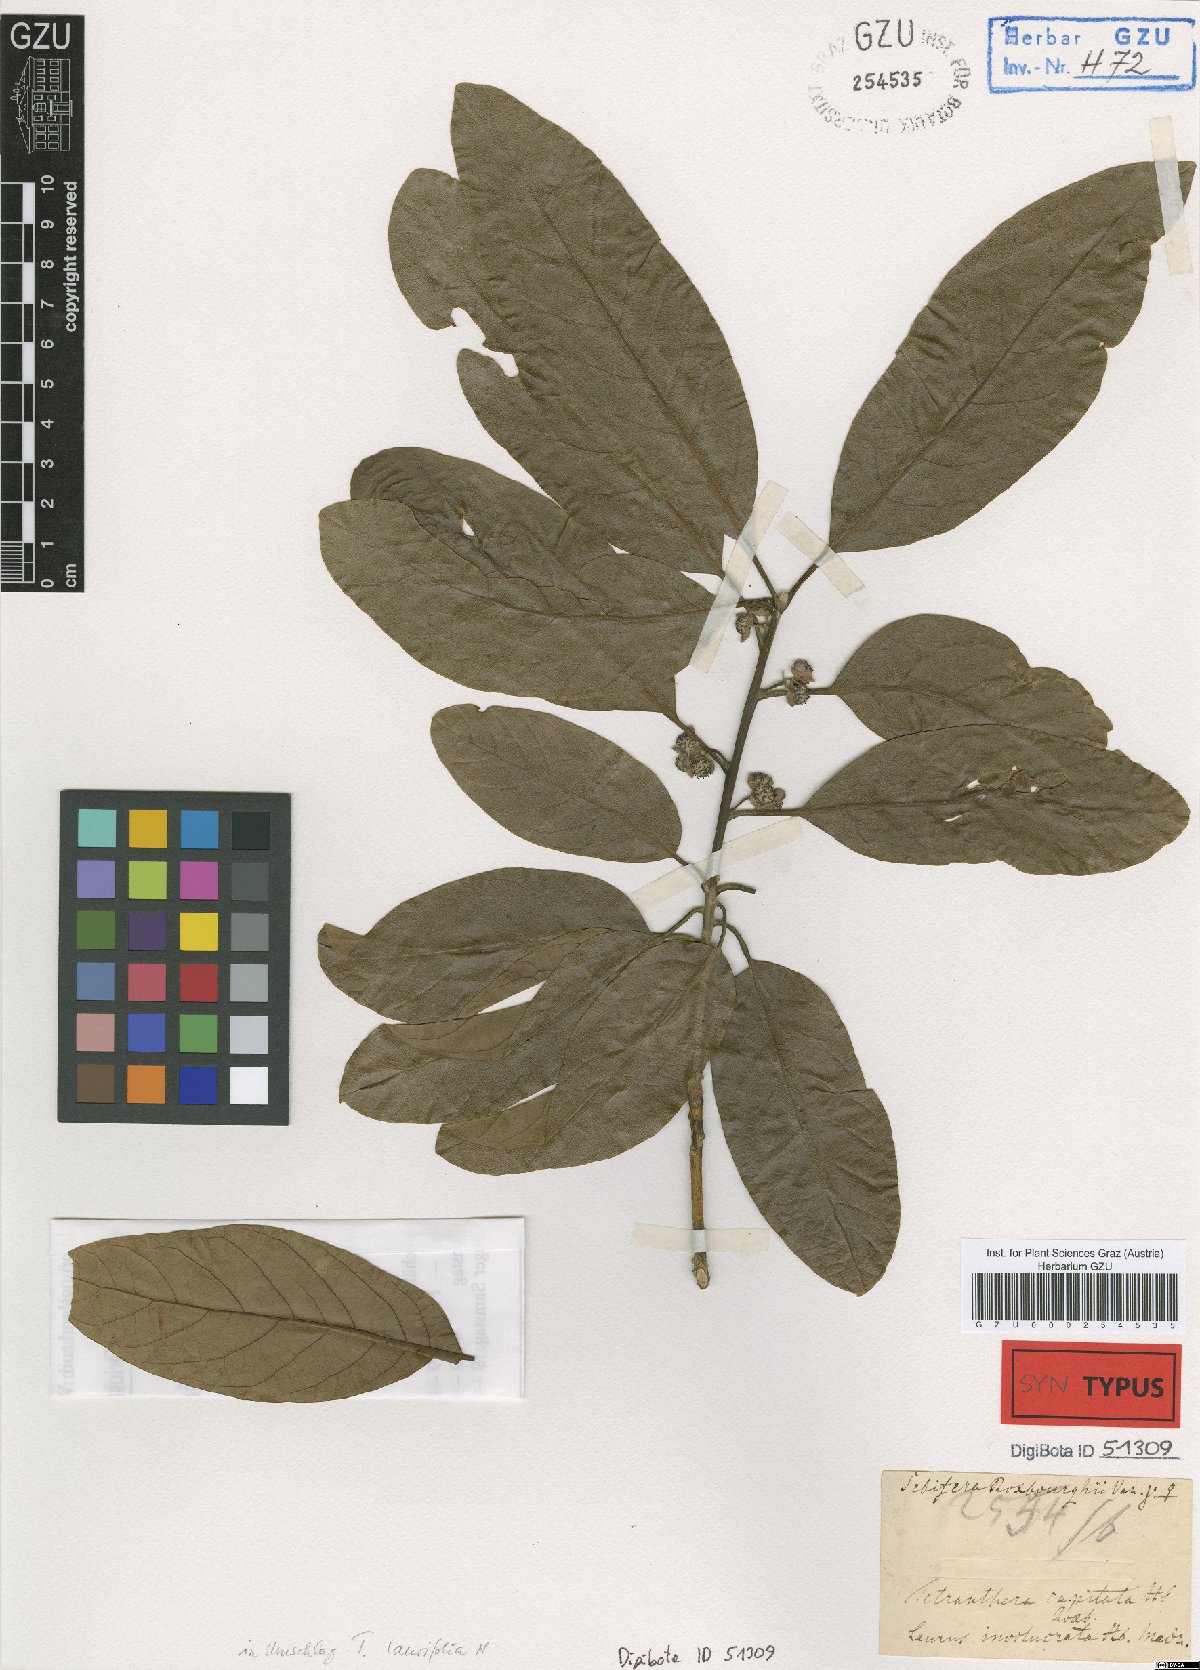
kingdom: Plantae
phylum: Tracheophyta
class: Magnoliopsida
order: Laurales
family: Lauraceae
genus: Litsea
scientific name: Litsea glutinosa
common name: Indian-laurel
